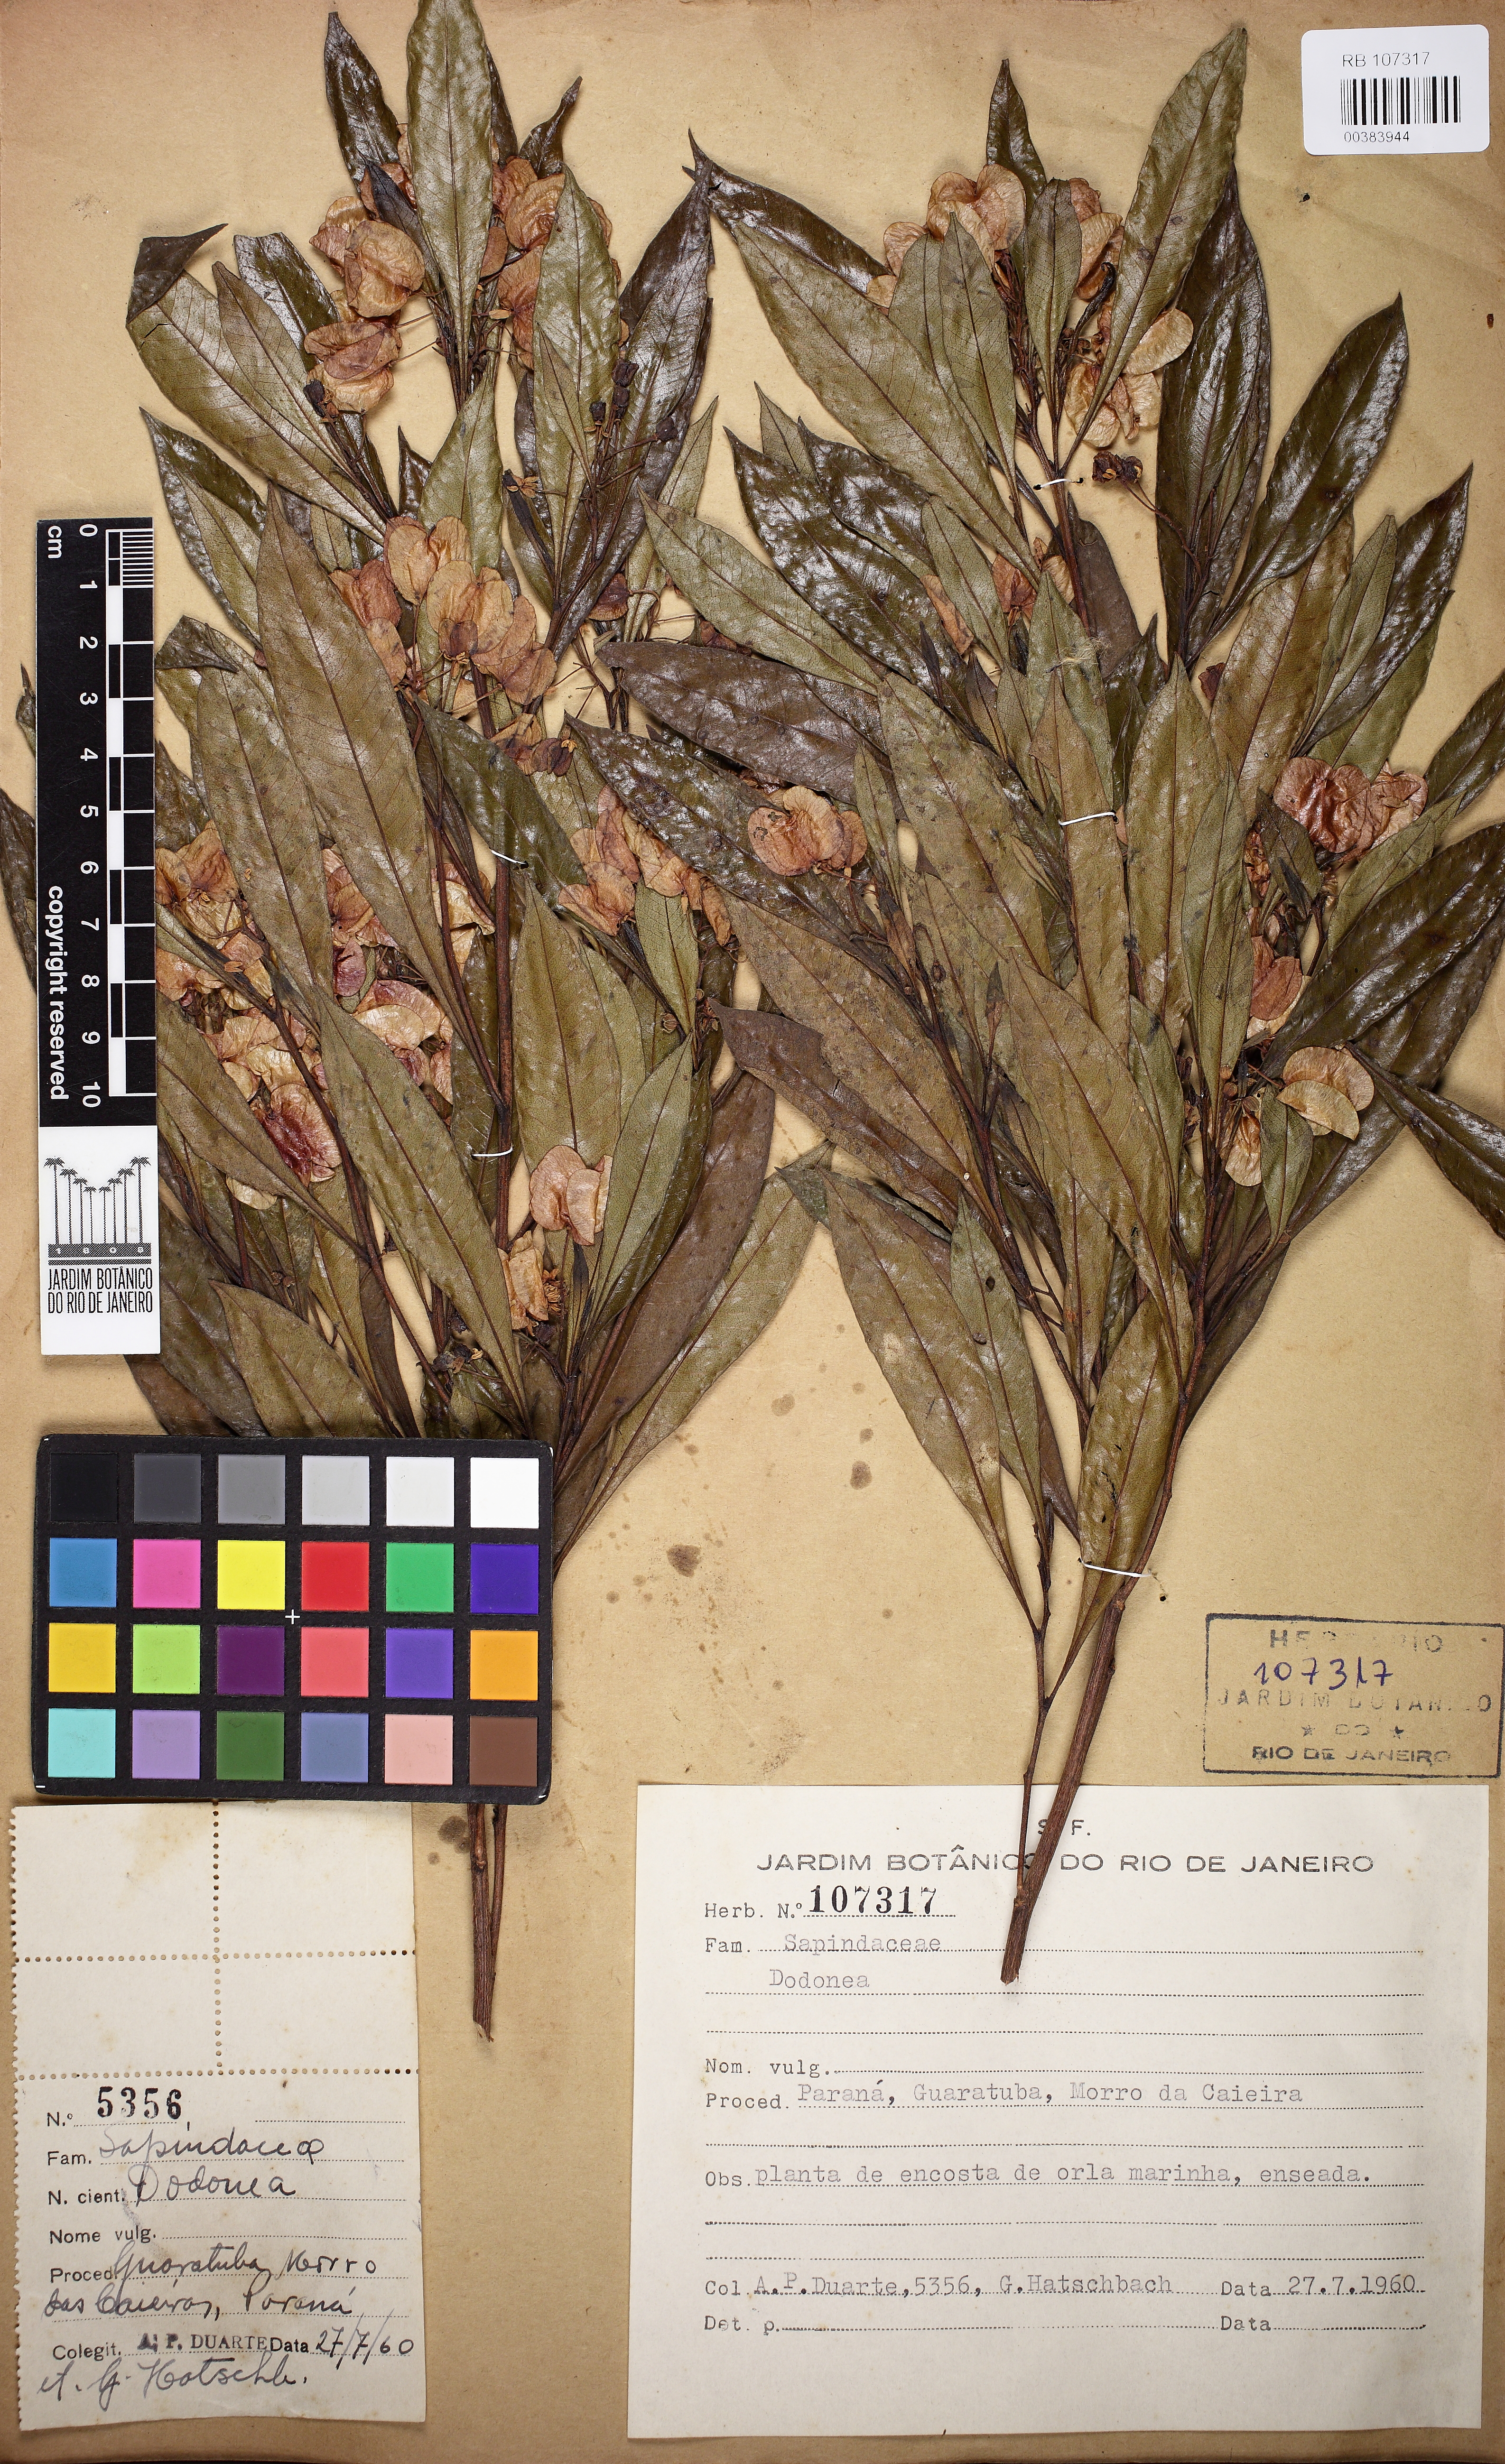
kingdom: Plantae
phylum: Tracheophyta
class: Magnoliopsida
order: Sapindales
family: Sapindaceae
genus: Dodonaea
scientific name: Dodonaea
